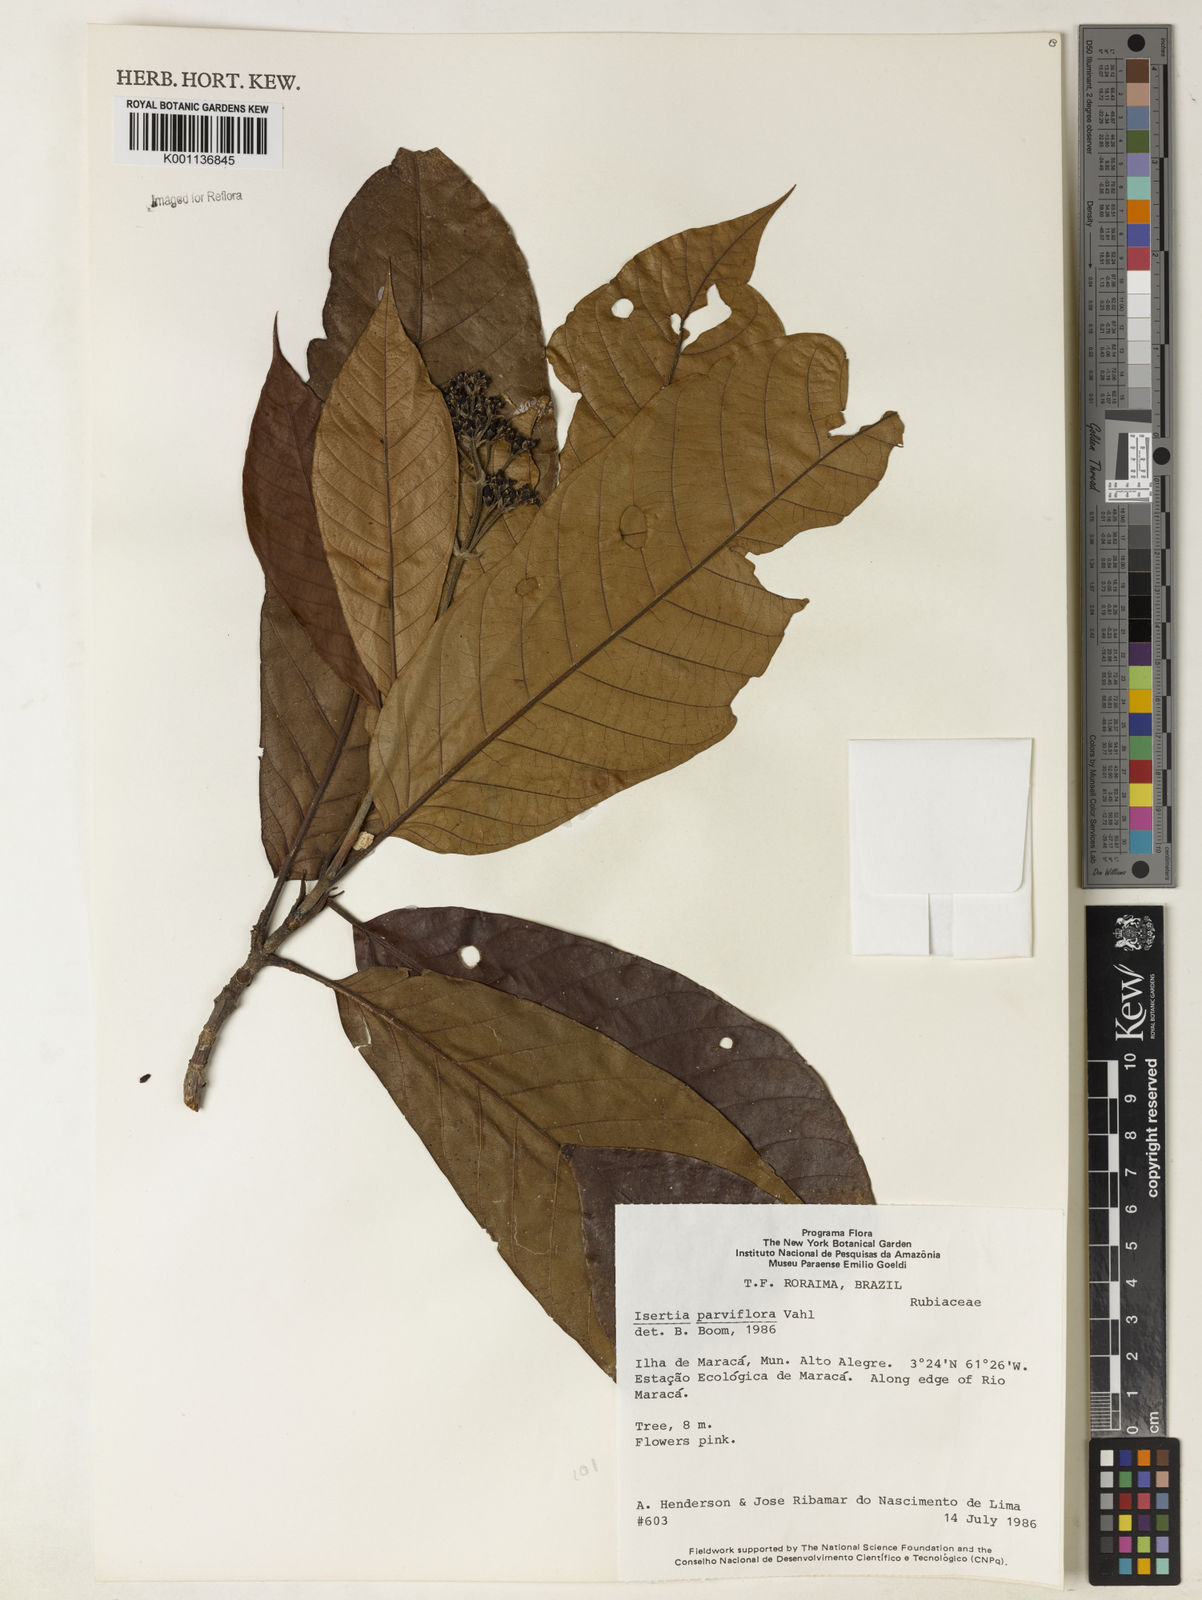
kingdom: Plantae
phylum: Tracheophyta
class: Magnoliopsida
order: Gentianales
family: Rubiaceae
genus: Isertia
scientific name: Isertia parviflora
